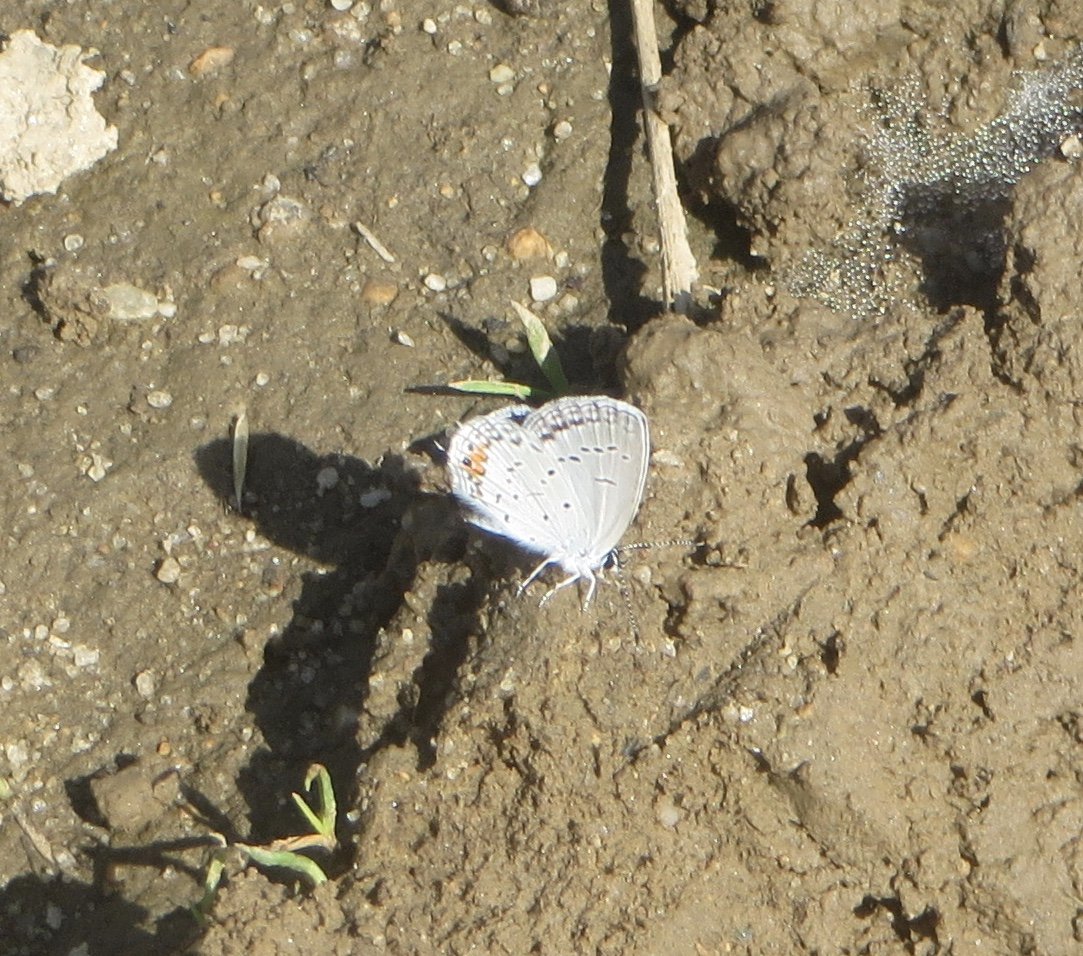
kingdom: Animalia
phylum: Arthropoda
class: Insecta
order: Lepidoptera
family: Lycaenidae
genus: Elkalyce
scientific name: Elkalyce comyntas
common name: Eastern Tailed-Blue
